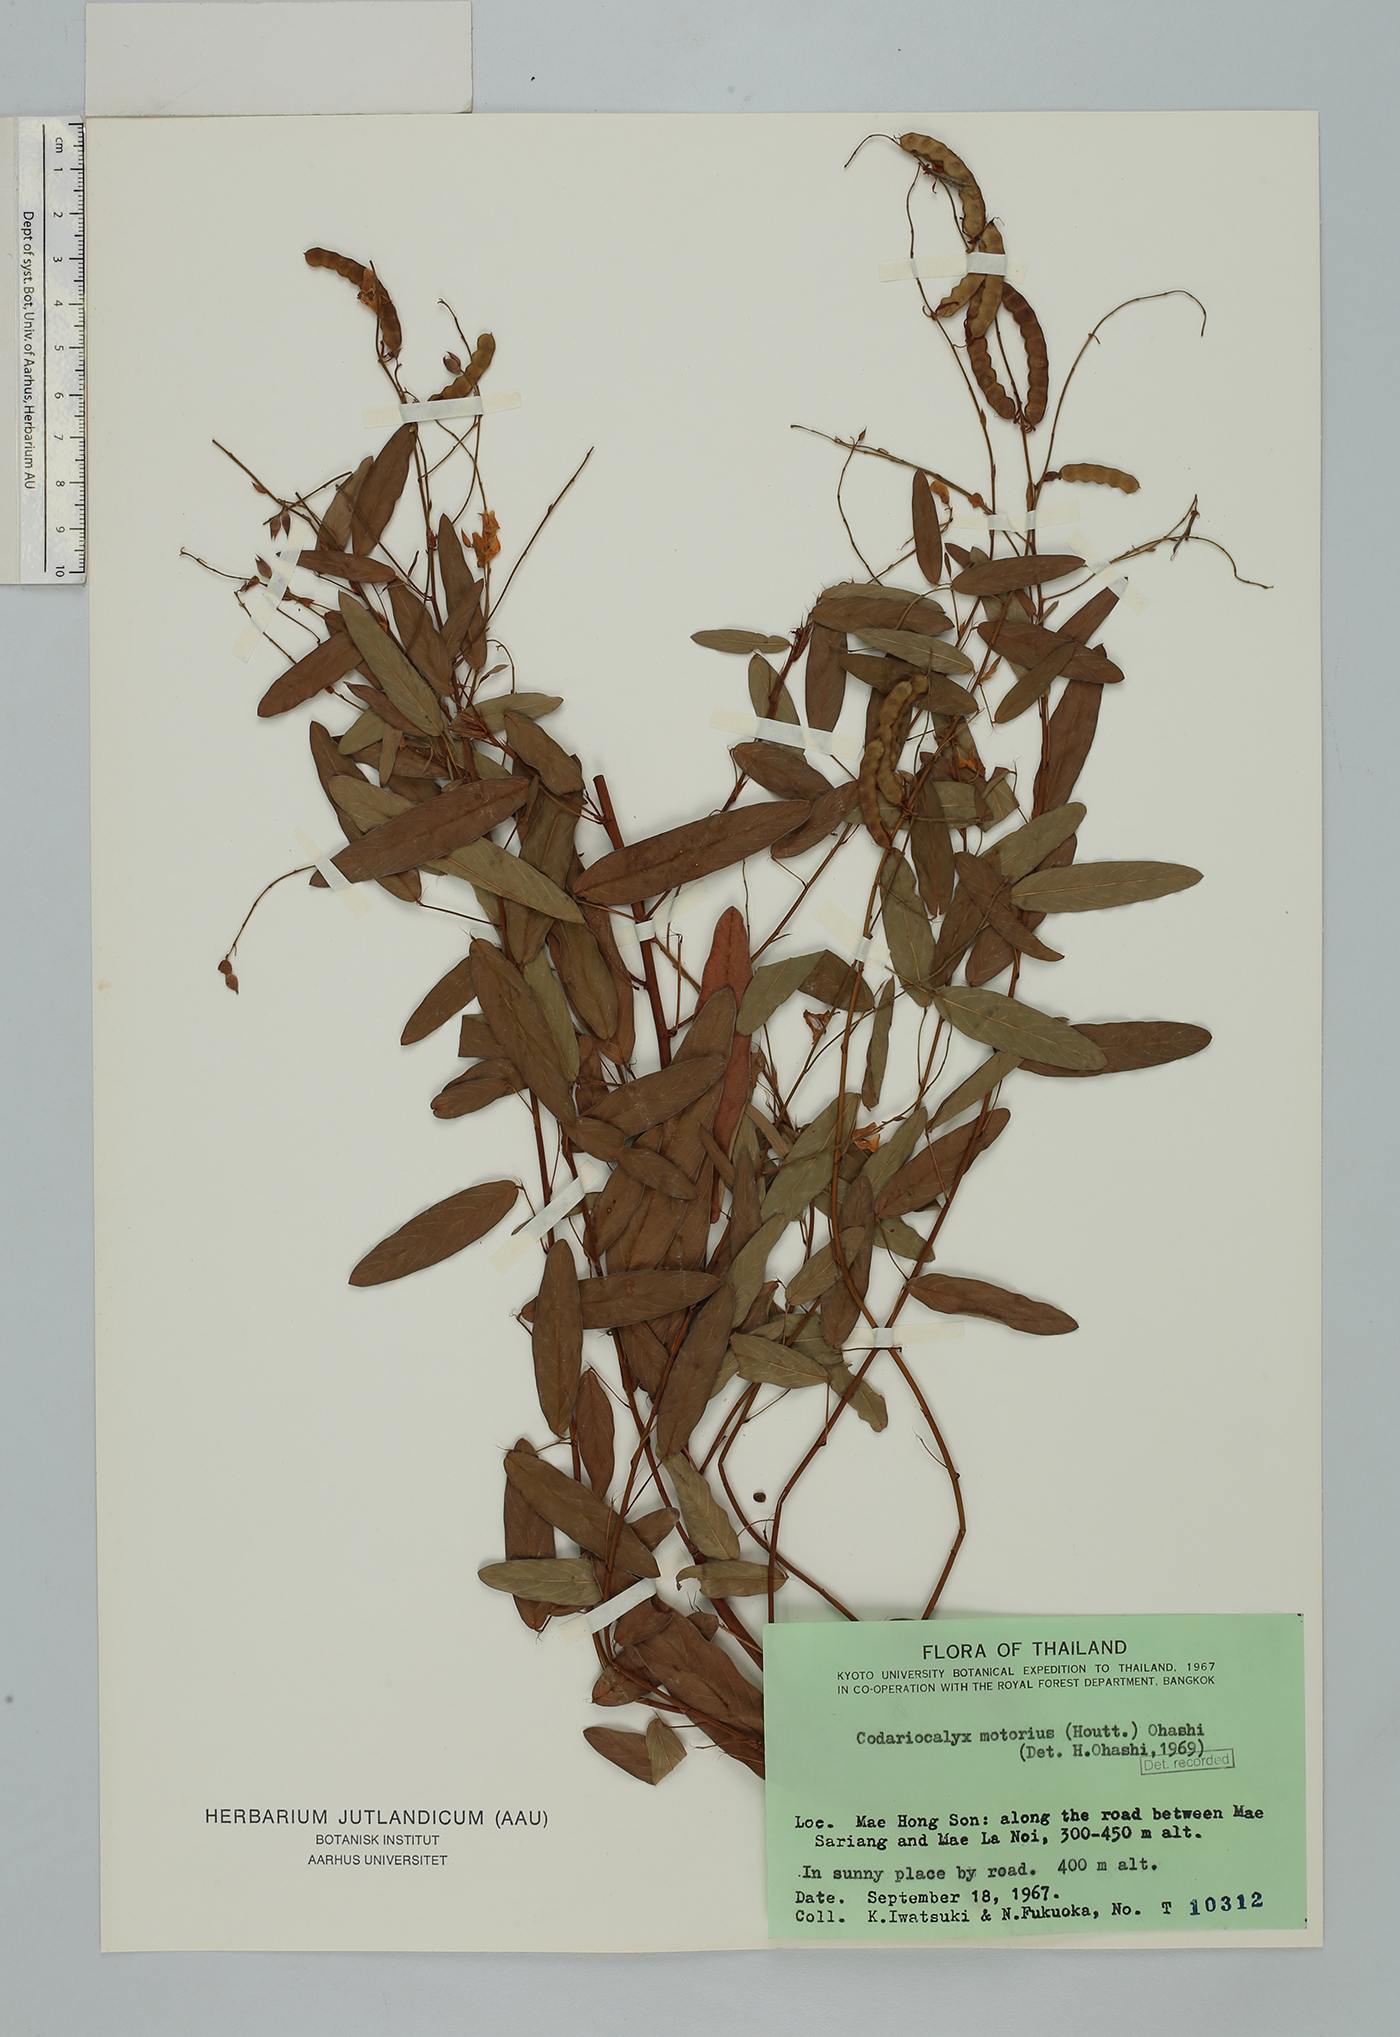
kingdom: Plantae
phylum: Tracheophyta
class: Magnoliopsida
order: Fabales
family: Fabaceae
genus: Codariocalyx
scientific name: Codariocalyx motorius
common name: Telegraph-plant
